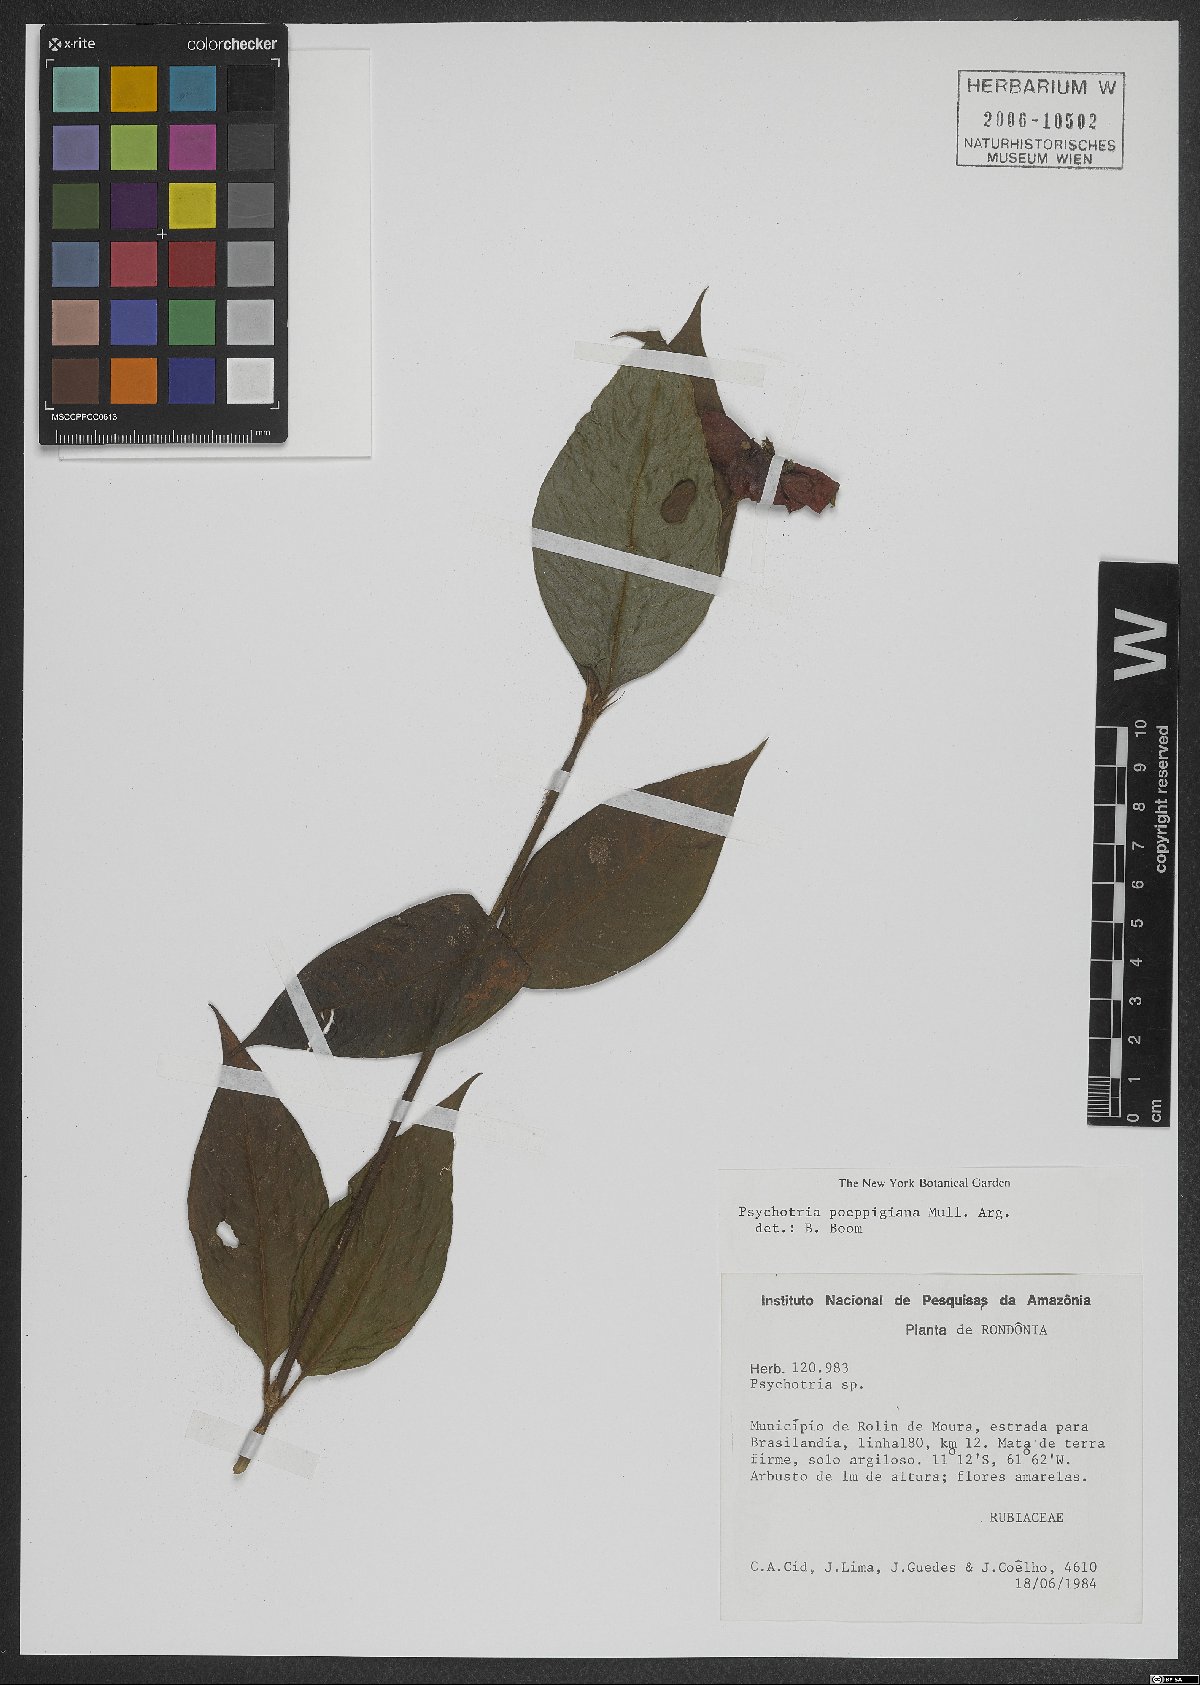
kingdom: Plantae
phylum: Tracheophyta
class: Magnoliopsida
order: Gentianales
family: Rubiaceae
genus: Palicourea
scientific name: Palicourea tomentosa
